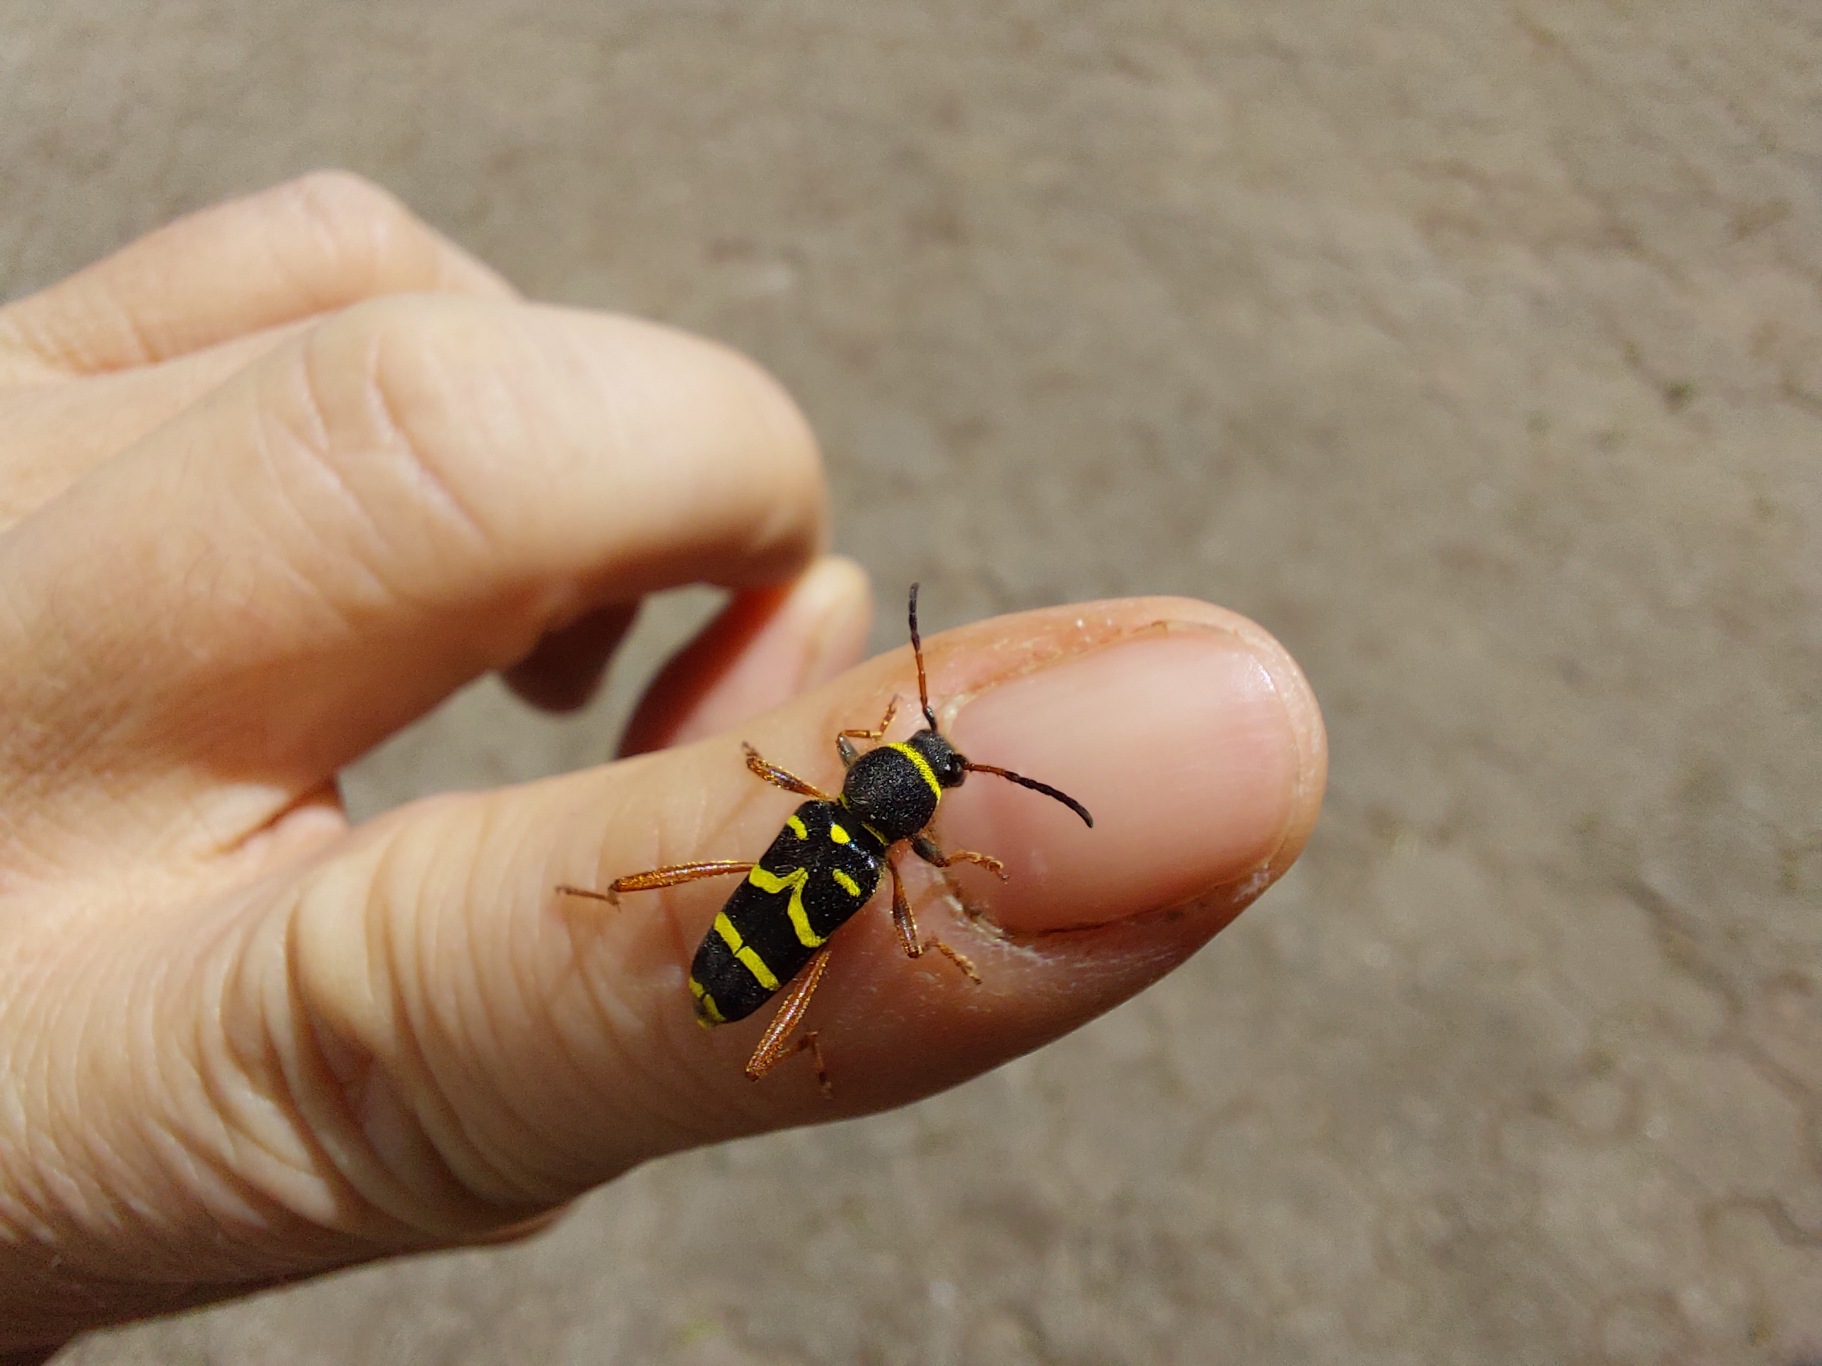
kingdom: Animalia
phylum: Arthropoda
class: Insecta
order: Coleoptera
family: Cerambycidae
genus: Clytus
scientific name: Clytus arietis
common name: Lille hvepsebuk
